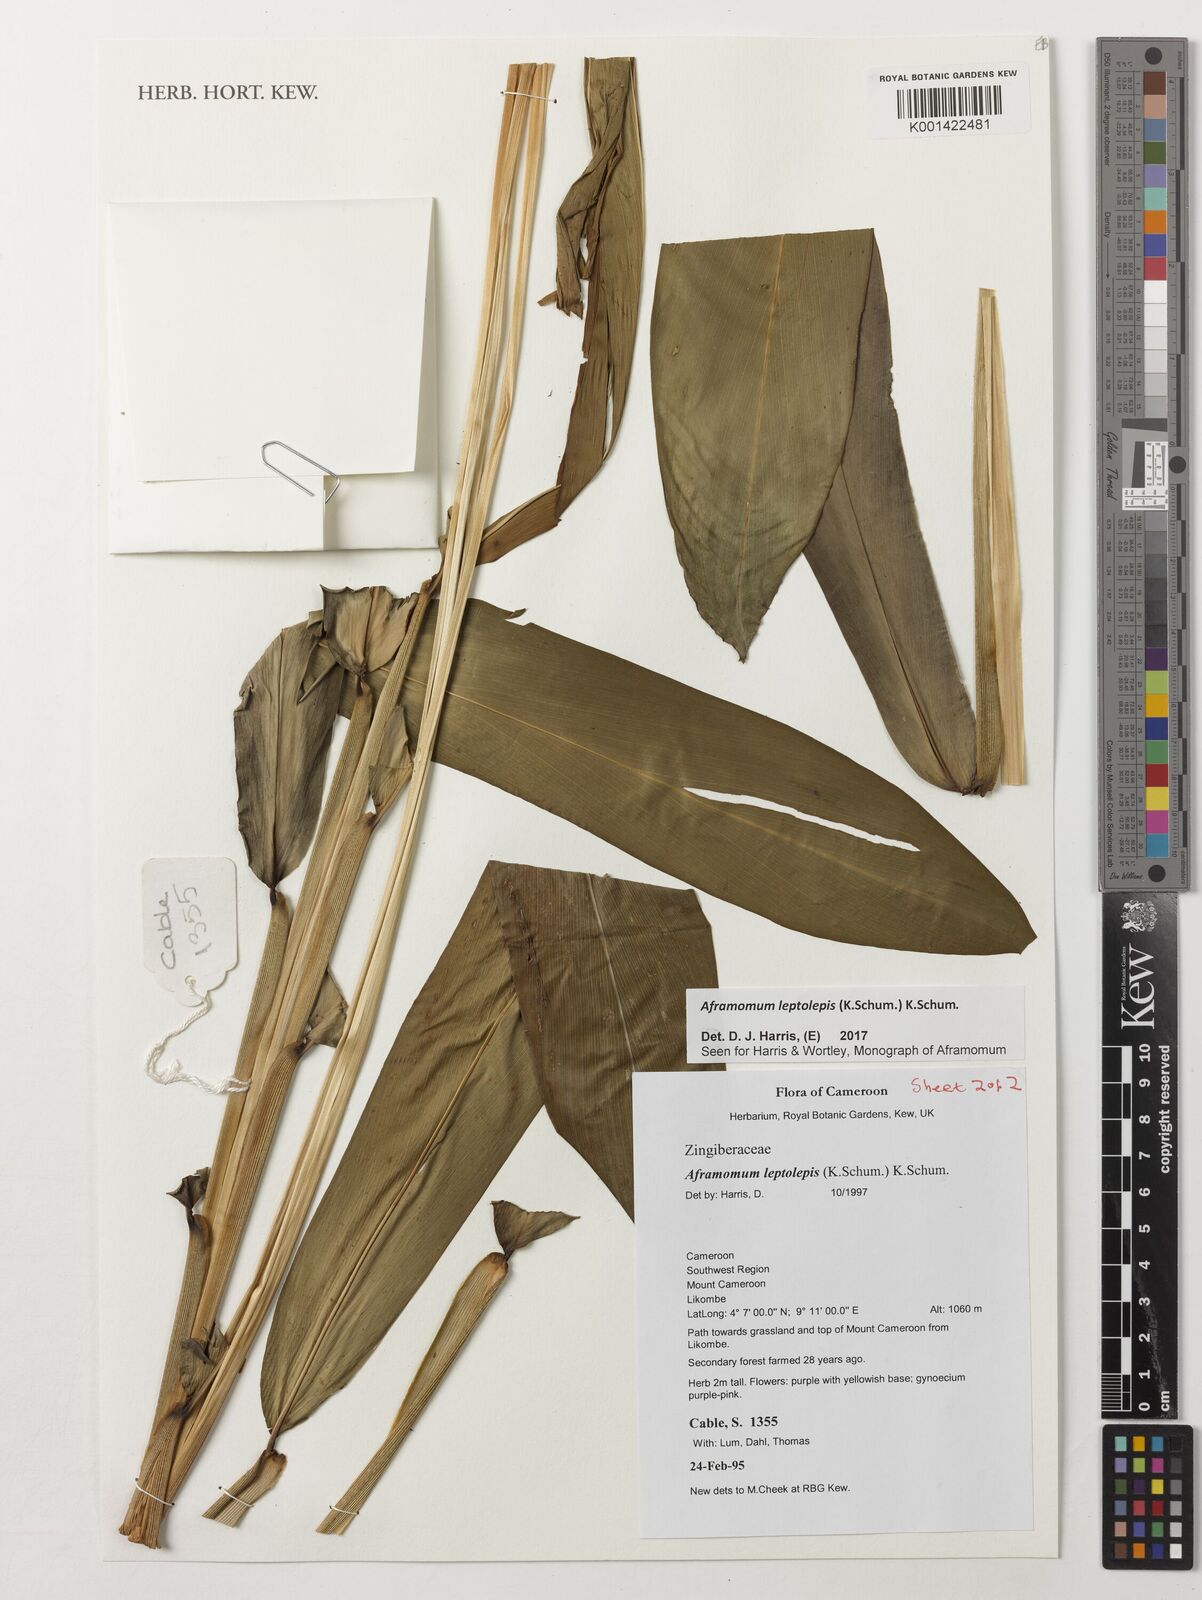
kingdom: Plantae
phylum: Tracheophyta
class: Liliopsida
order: Zingiberales
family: Zingiberaceae
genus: Aframomum
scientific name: Aframomum leptolepis
